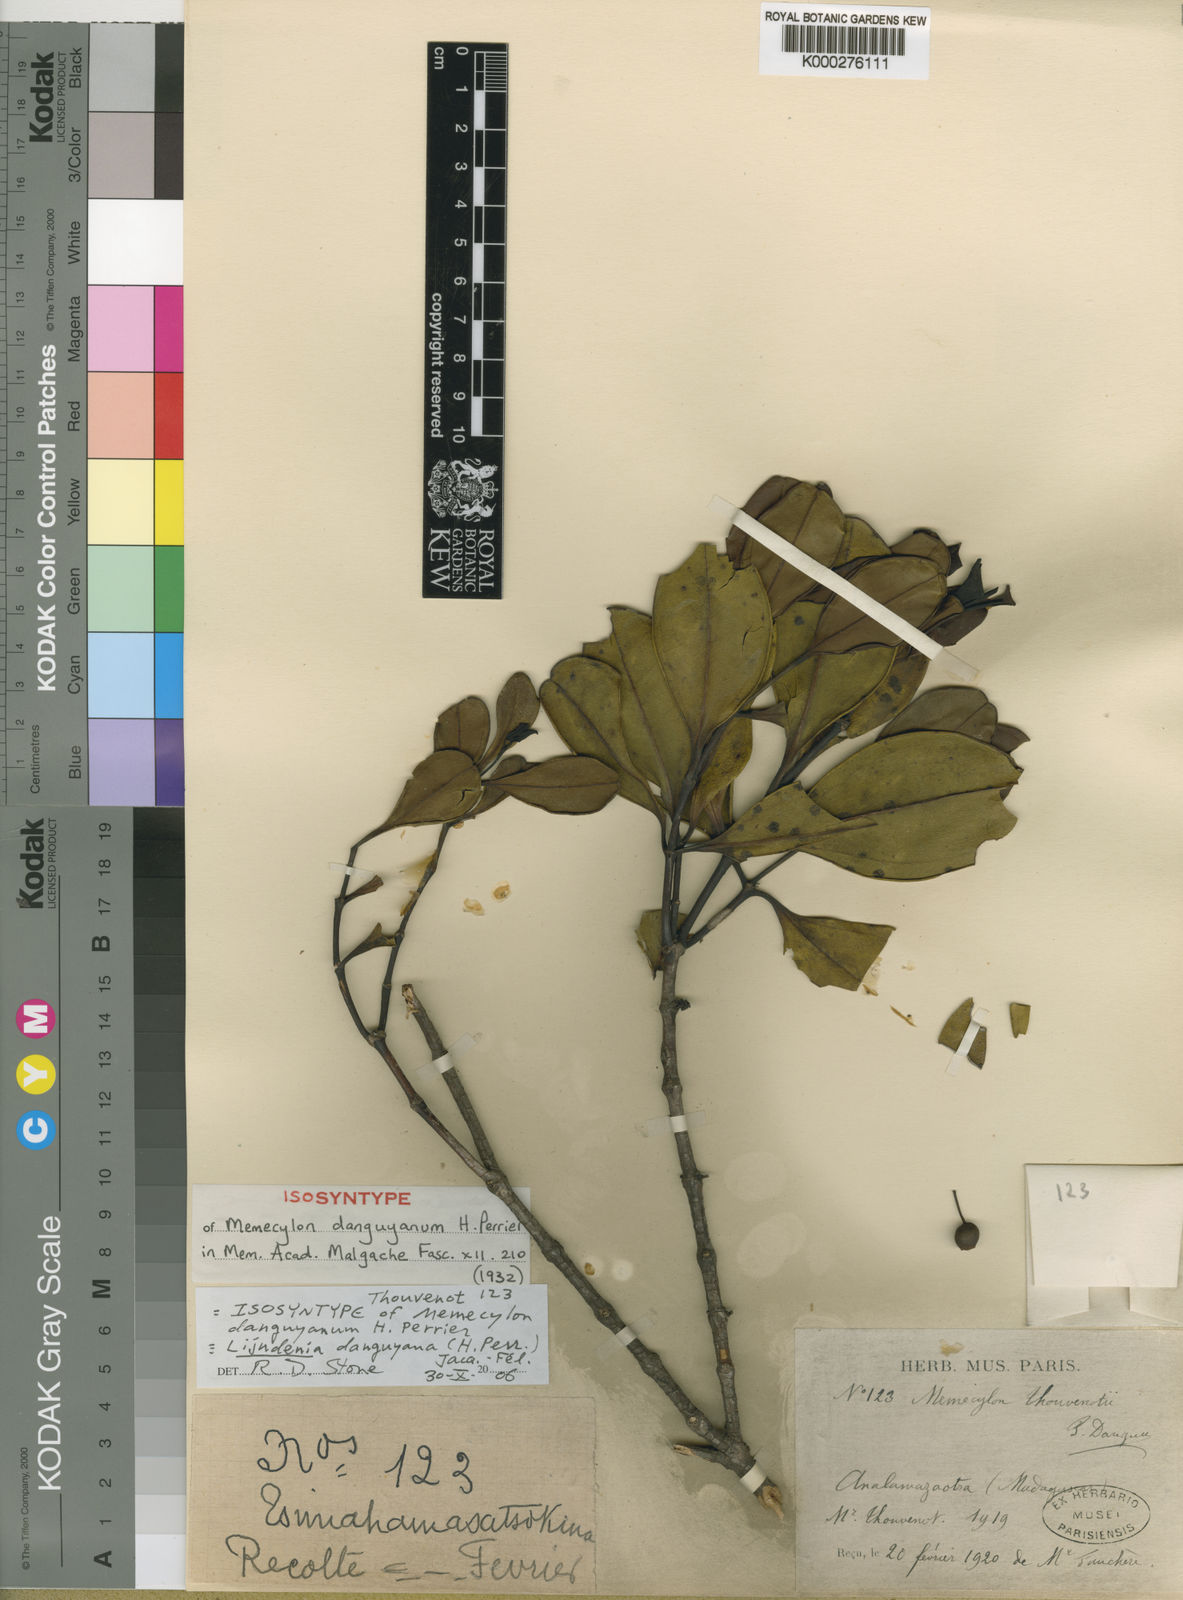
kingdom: Plantae
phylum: Tracheophyta
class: Magnoliopsida
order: Myrtales
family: Melastomataceae
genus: Lijndenia
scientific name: Lijndenia
